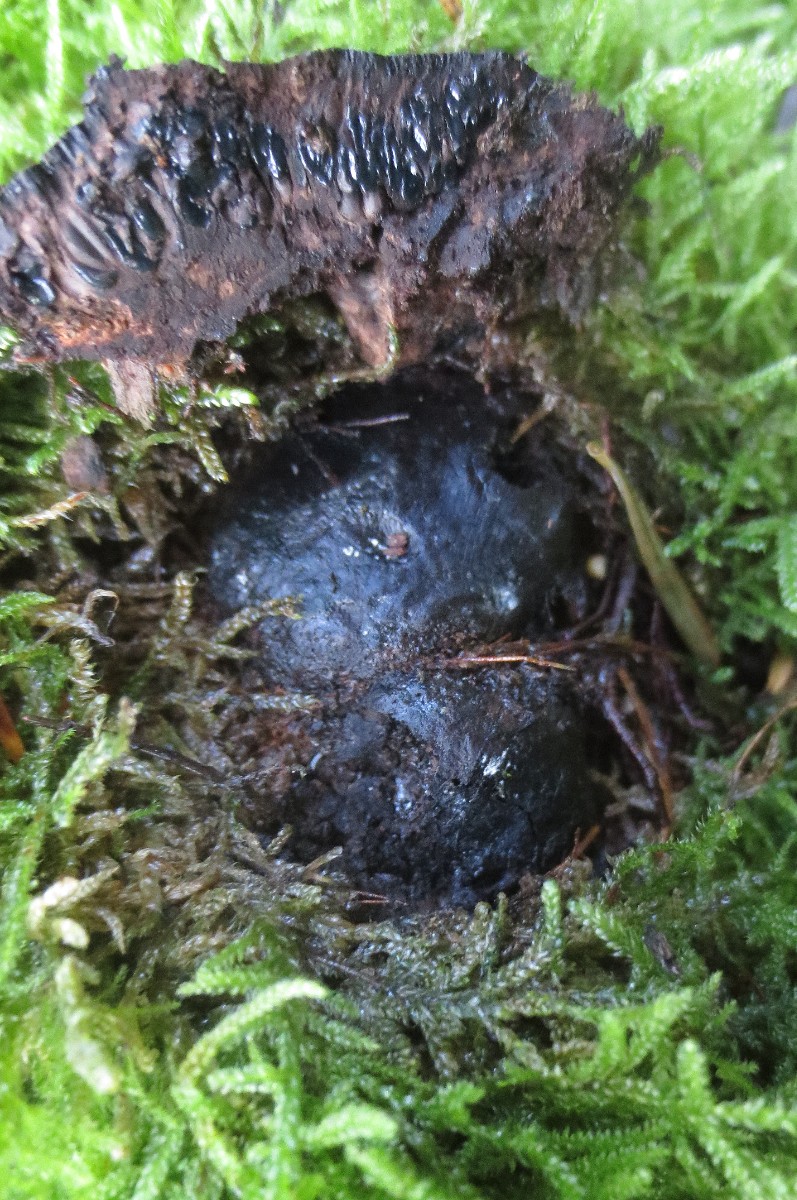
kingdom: Fungi
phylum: Ascomycota
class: Sordariomycetes
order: Boliniales
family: Boliniaceae
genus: Camarops
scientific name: Camarops tubulina
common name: knudret kulsnegl
